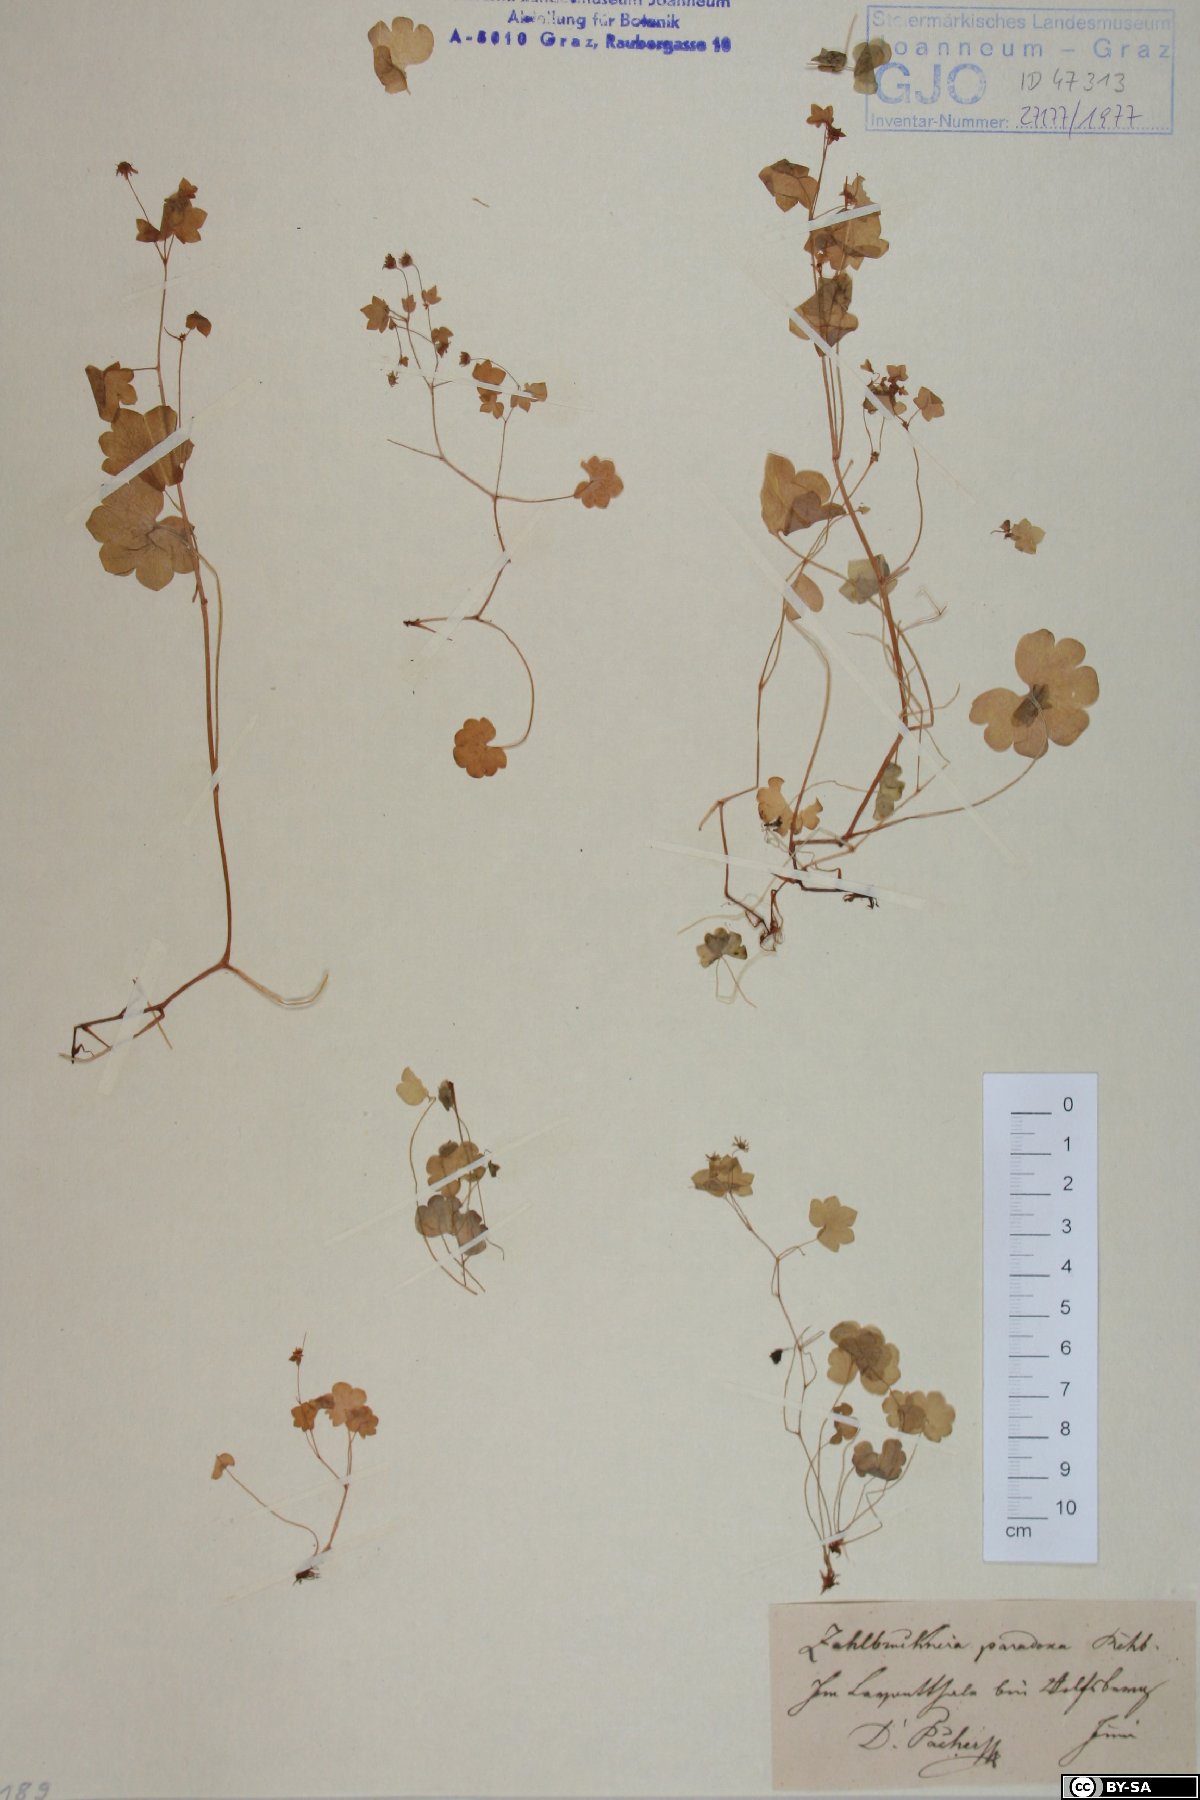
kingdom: Plantae
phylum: Tracheophyta
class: Magnoliopsida
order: Saxifragales
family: Saxifragaceae
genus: Saxifraga
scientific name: Saxifraga paradoxa
